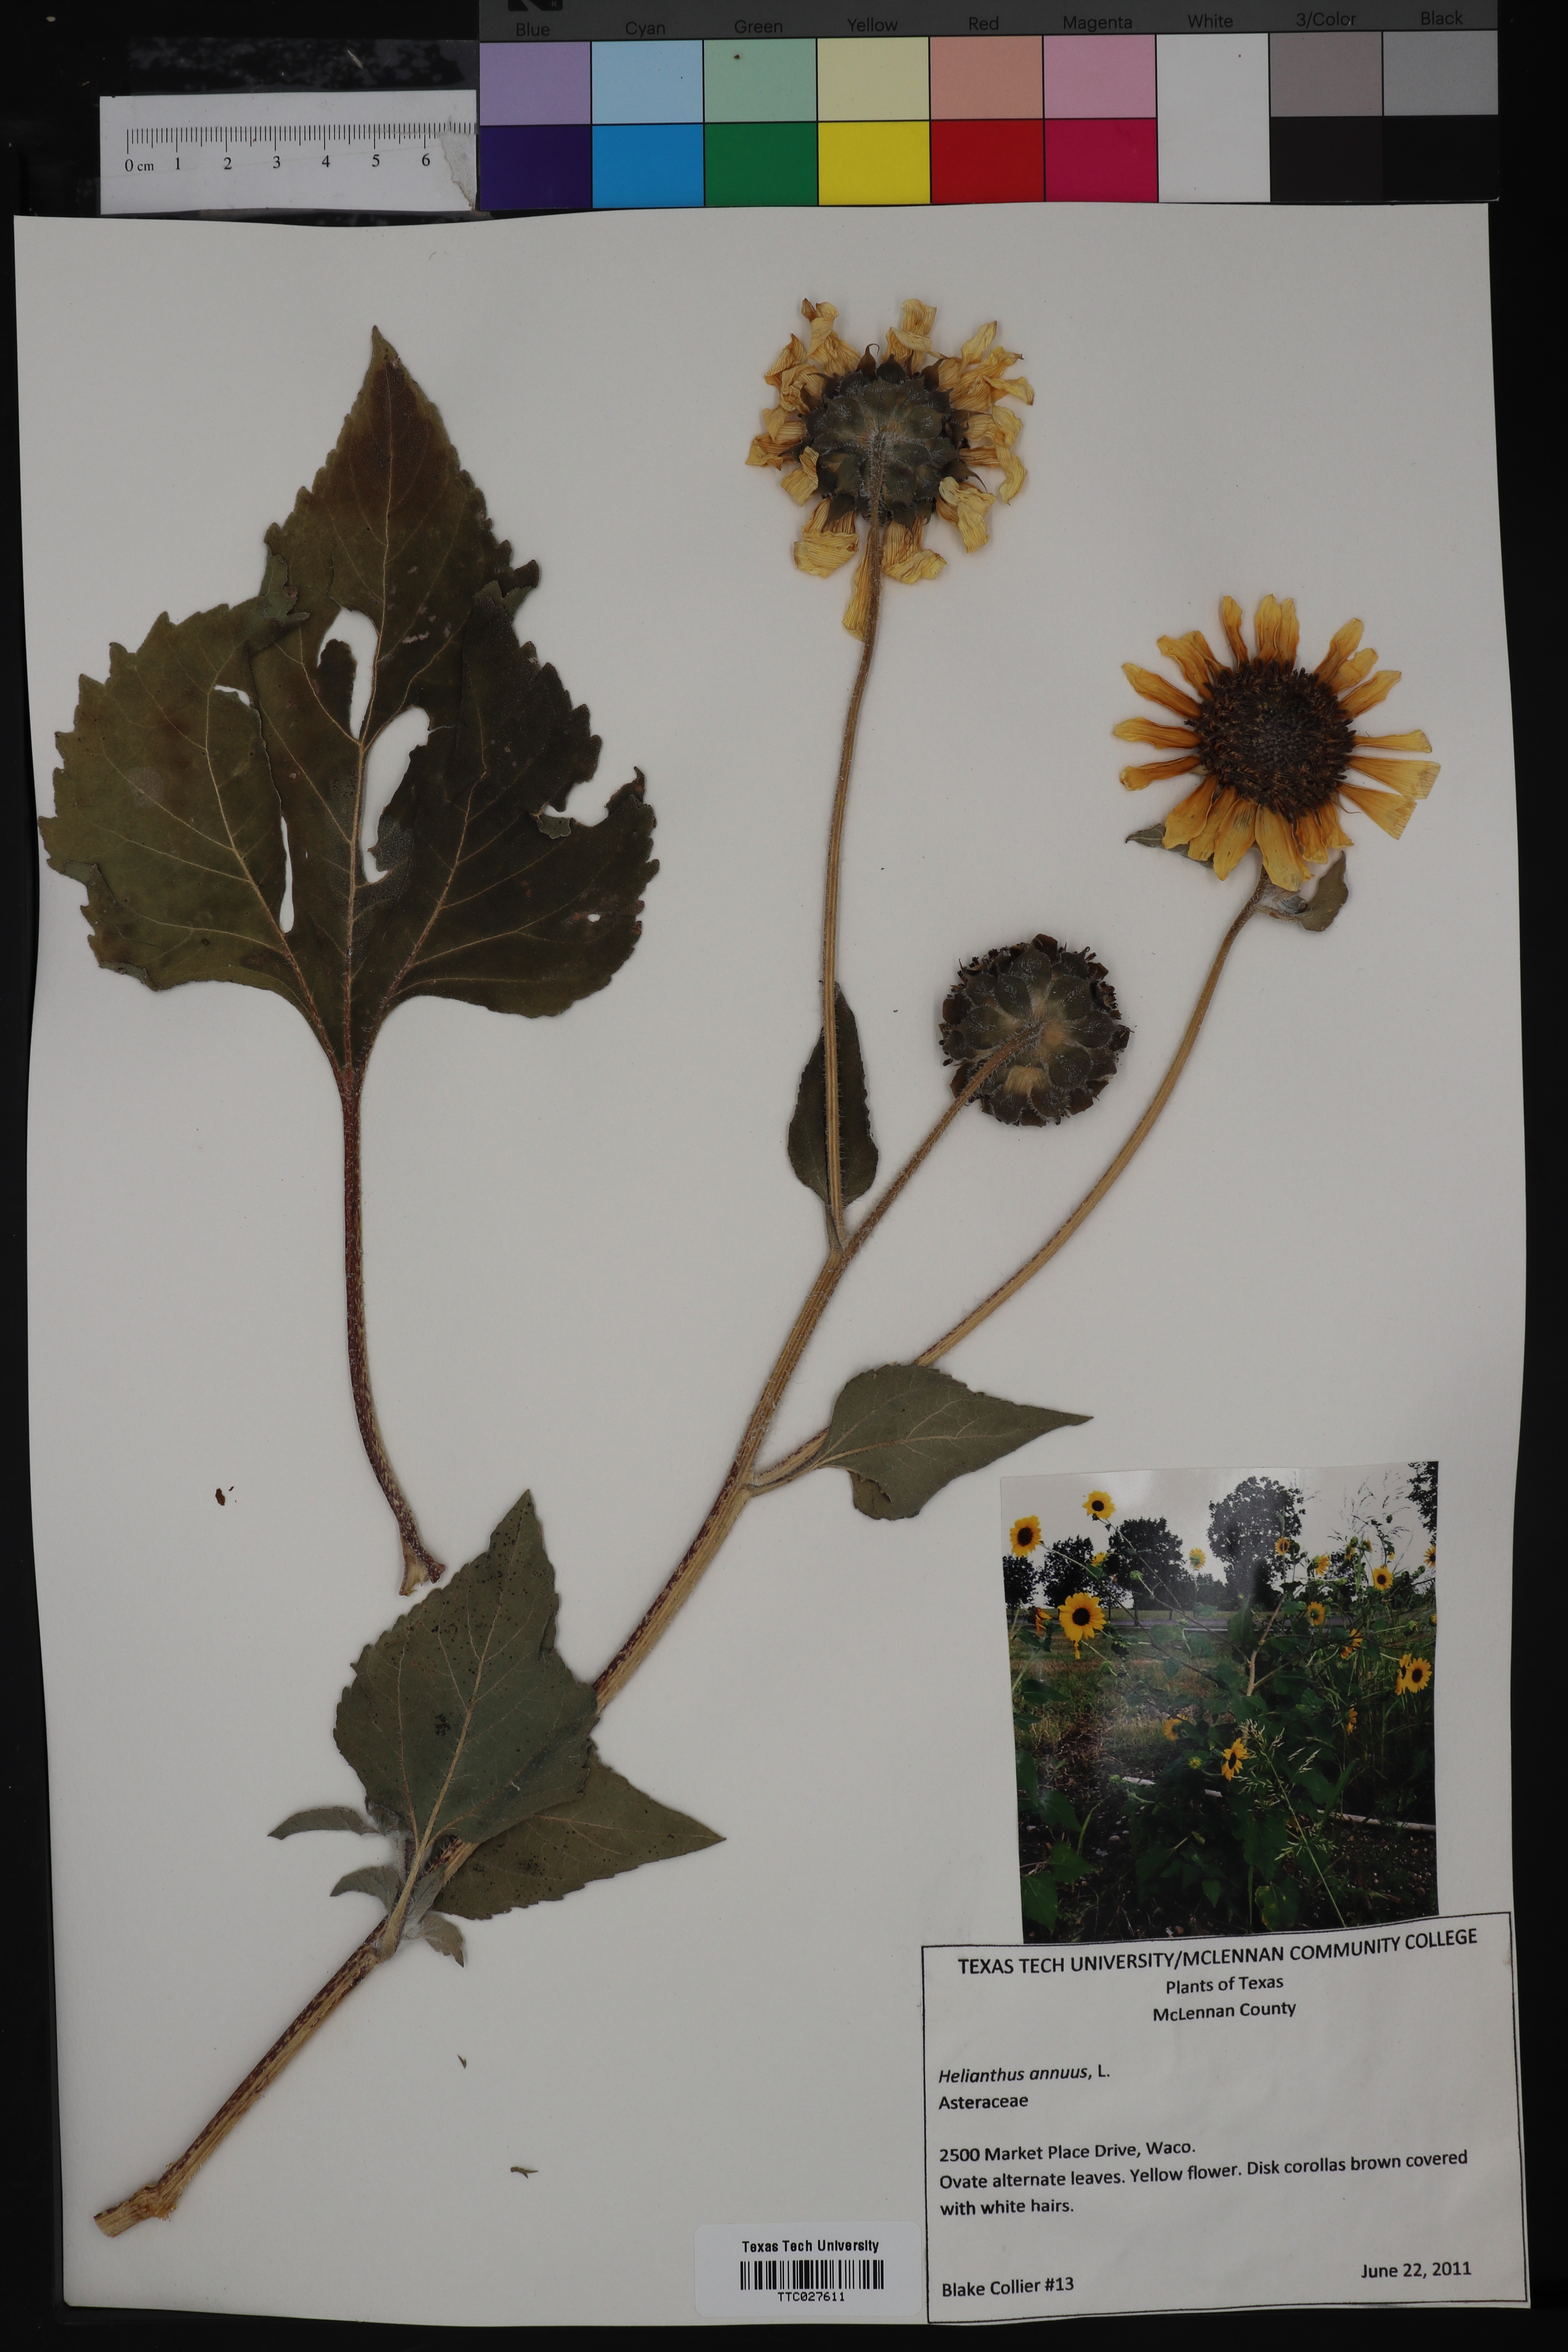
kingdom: Plantae
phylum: Tracheophyta
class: Magnoliopsida
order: Asterales
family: Asteraceae
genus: Helianthus
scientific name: Helianthus annuus
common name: Sunflower
